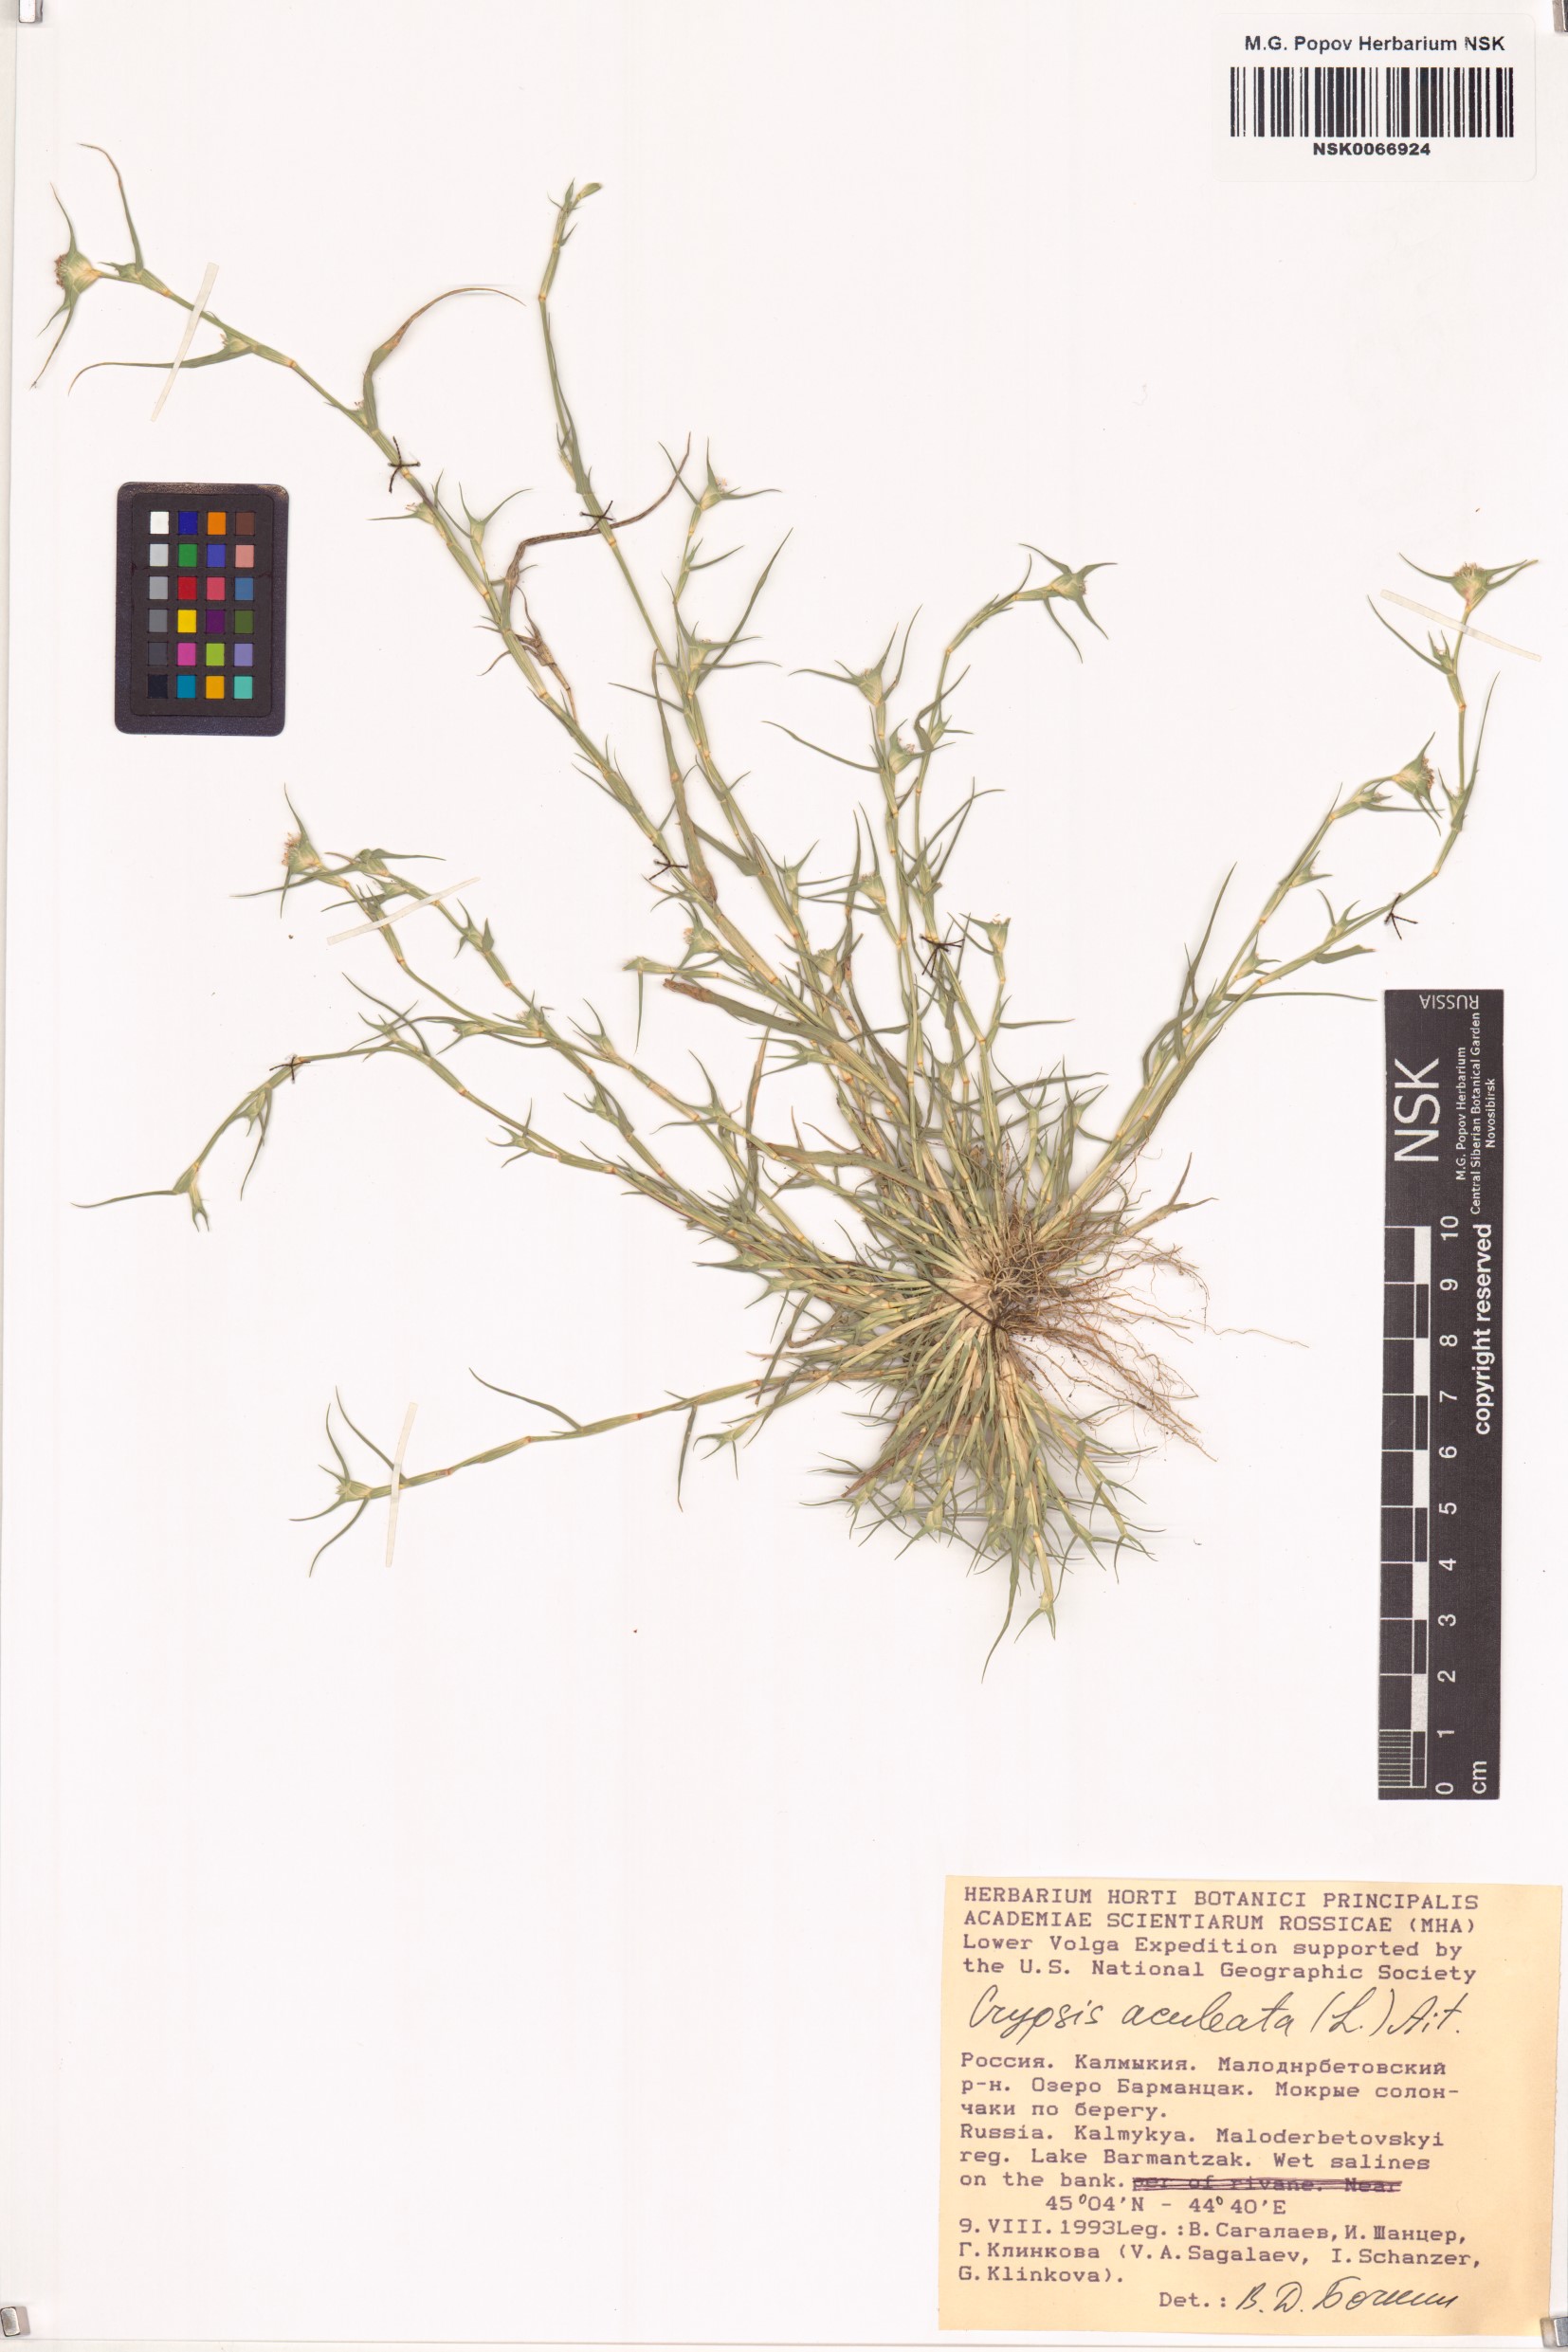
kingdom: Animalia
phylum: Arthropoda
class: Insecta
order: Coleoptera
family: Tenebrionidae
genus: Crypsis
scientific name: Crypsis
